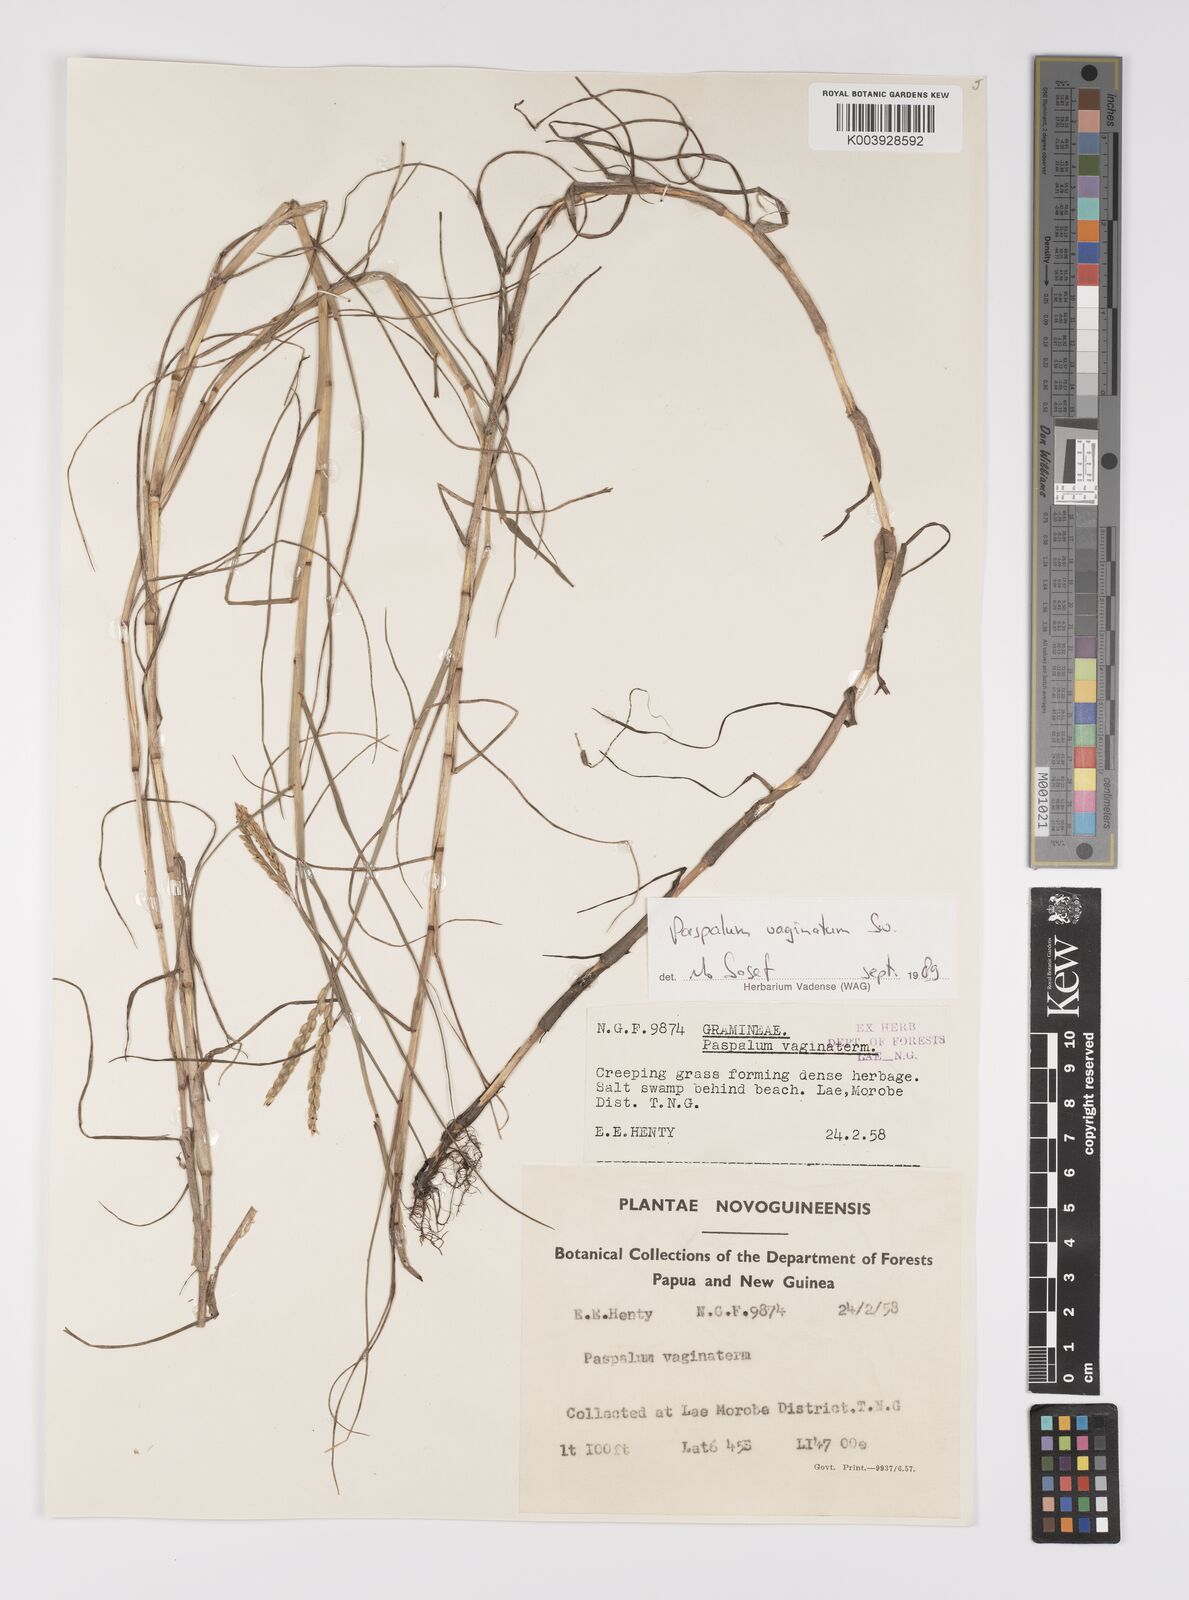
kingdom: Plantae
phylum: Tracheophyta
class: Liliopsida
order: Poales
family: Poaceae
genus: Paspalum
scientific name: Paspalum vaginatum
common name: Seashore paspalum
